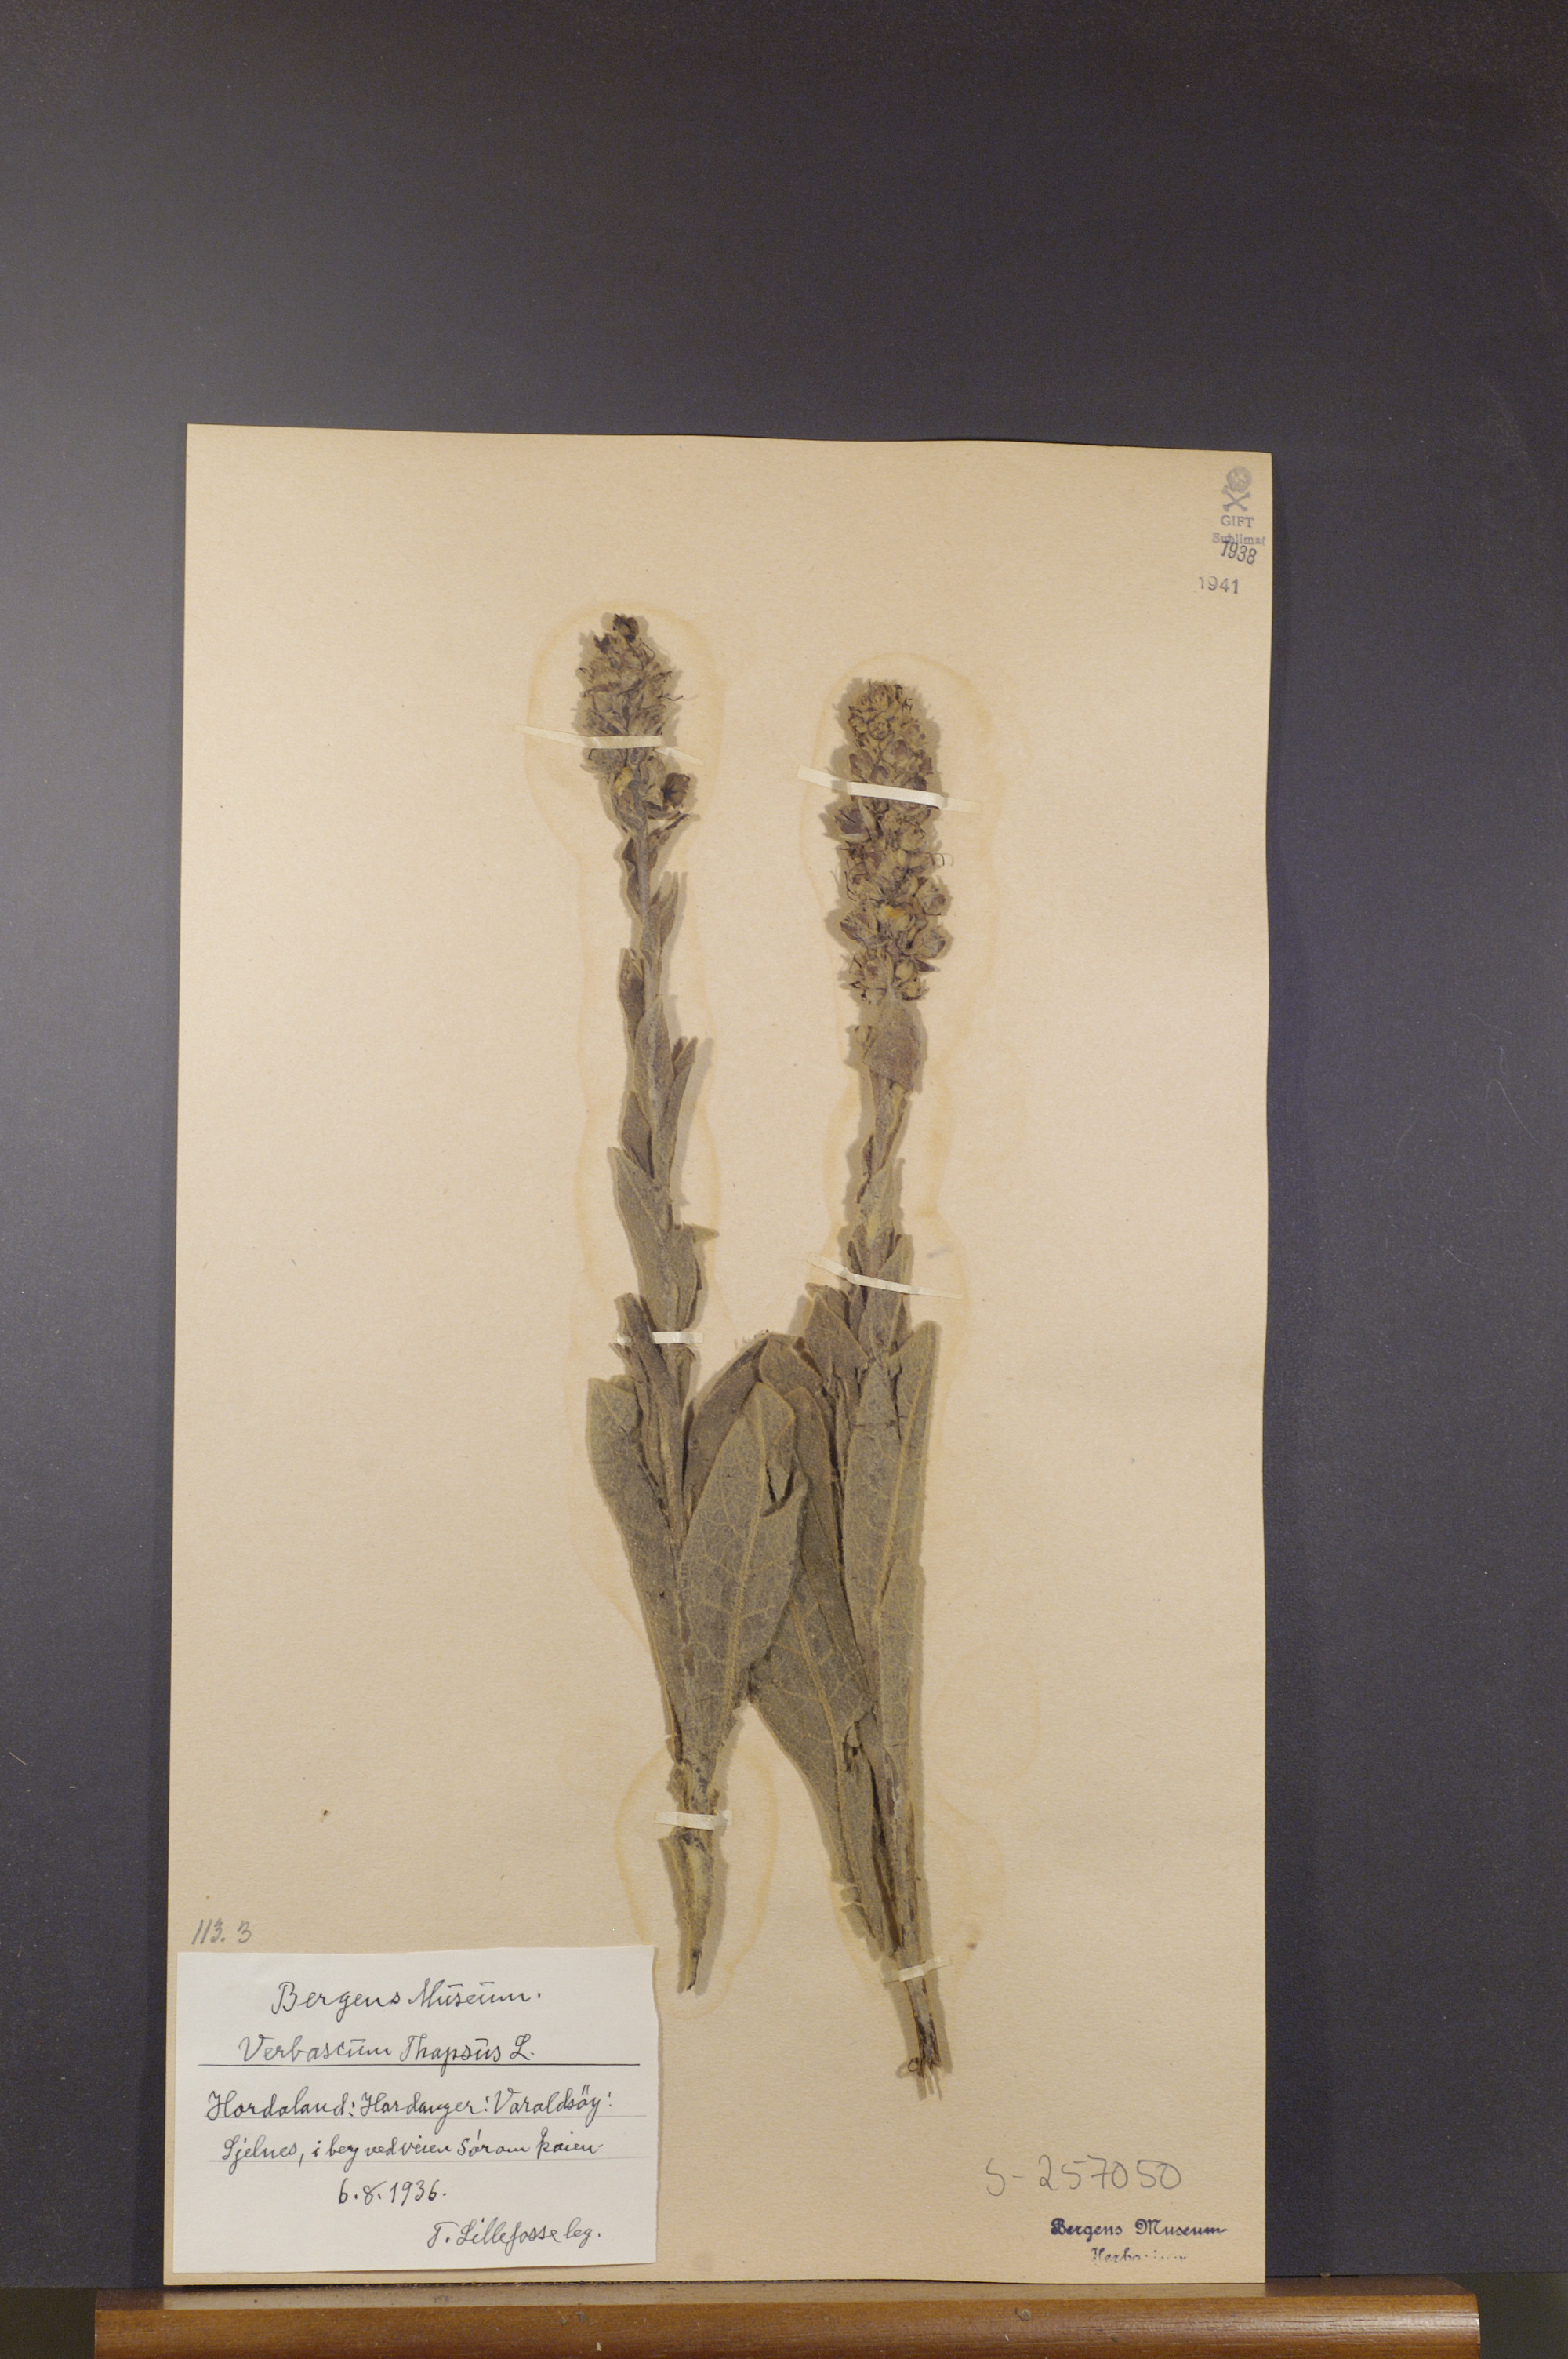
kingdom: Plantae
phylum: Tracheophyta
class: Magnoliopsida
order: Lamiales
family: Scrophulariaceae
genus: Verbascum
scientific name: Verbascum thapsus
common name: Common mullein
